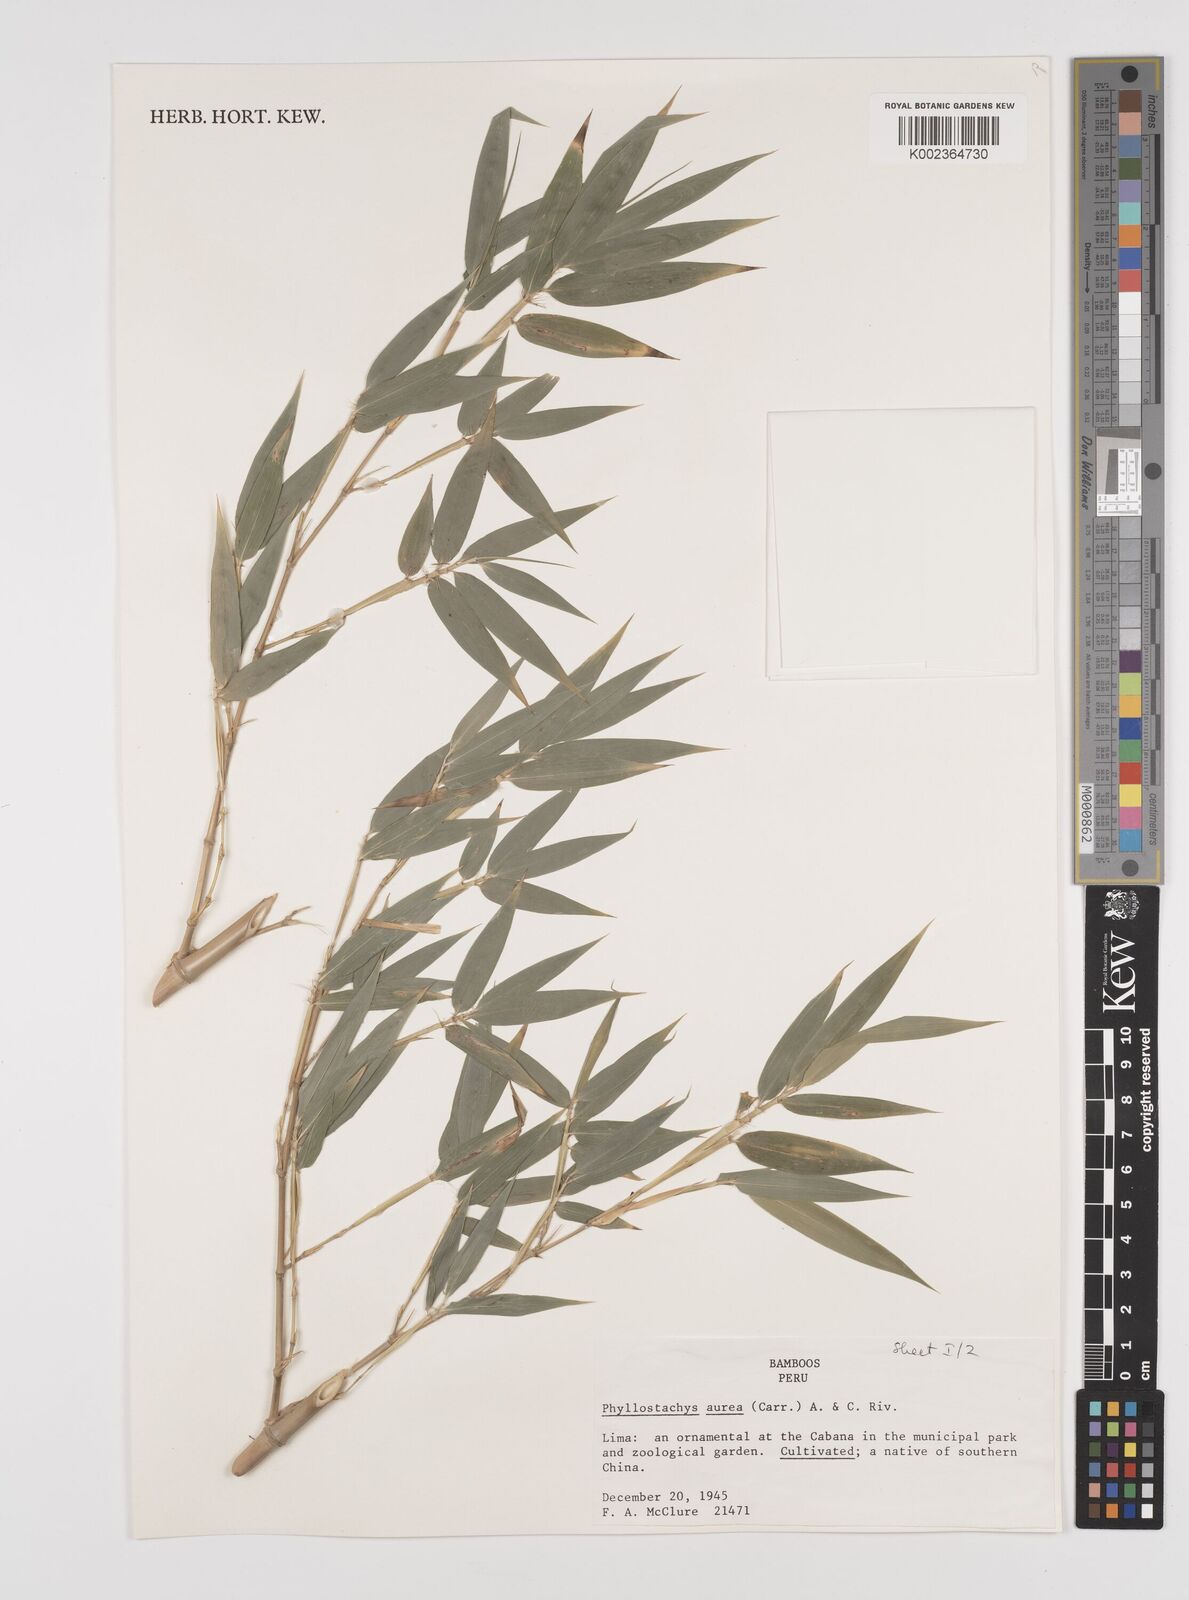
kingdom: Plantae
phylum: Tracheophyta
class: Liliopsida
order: Poales
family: Poaceae
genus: Phyllostachys
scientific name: Phyllostachys aurea
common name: Golden bamboo
